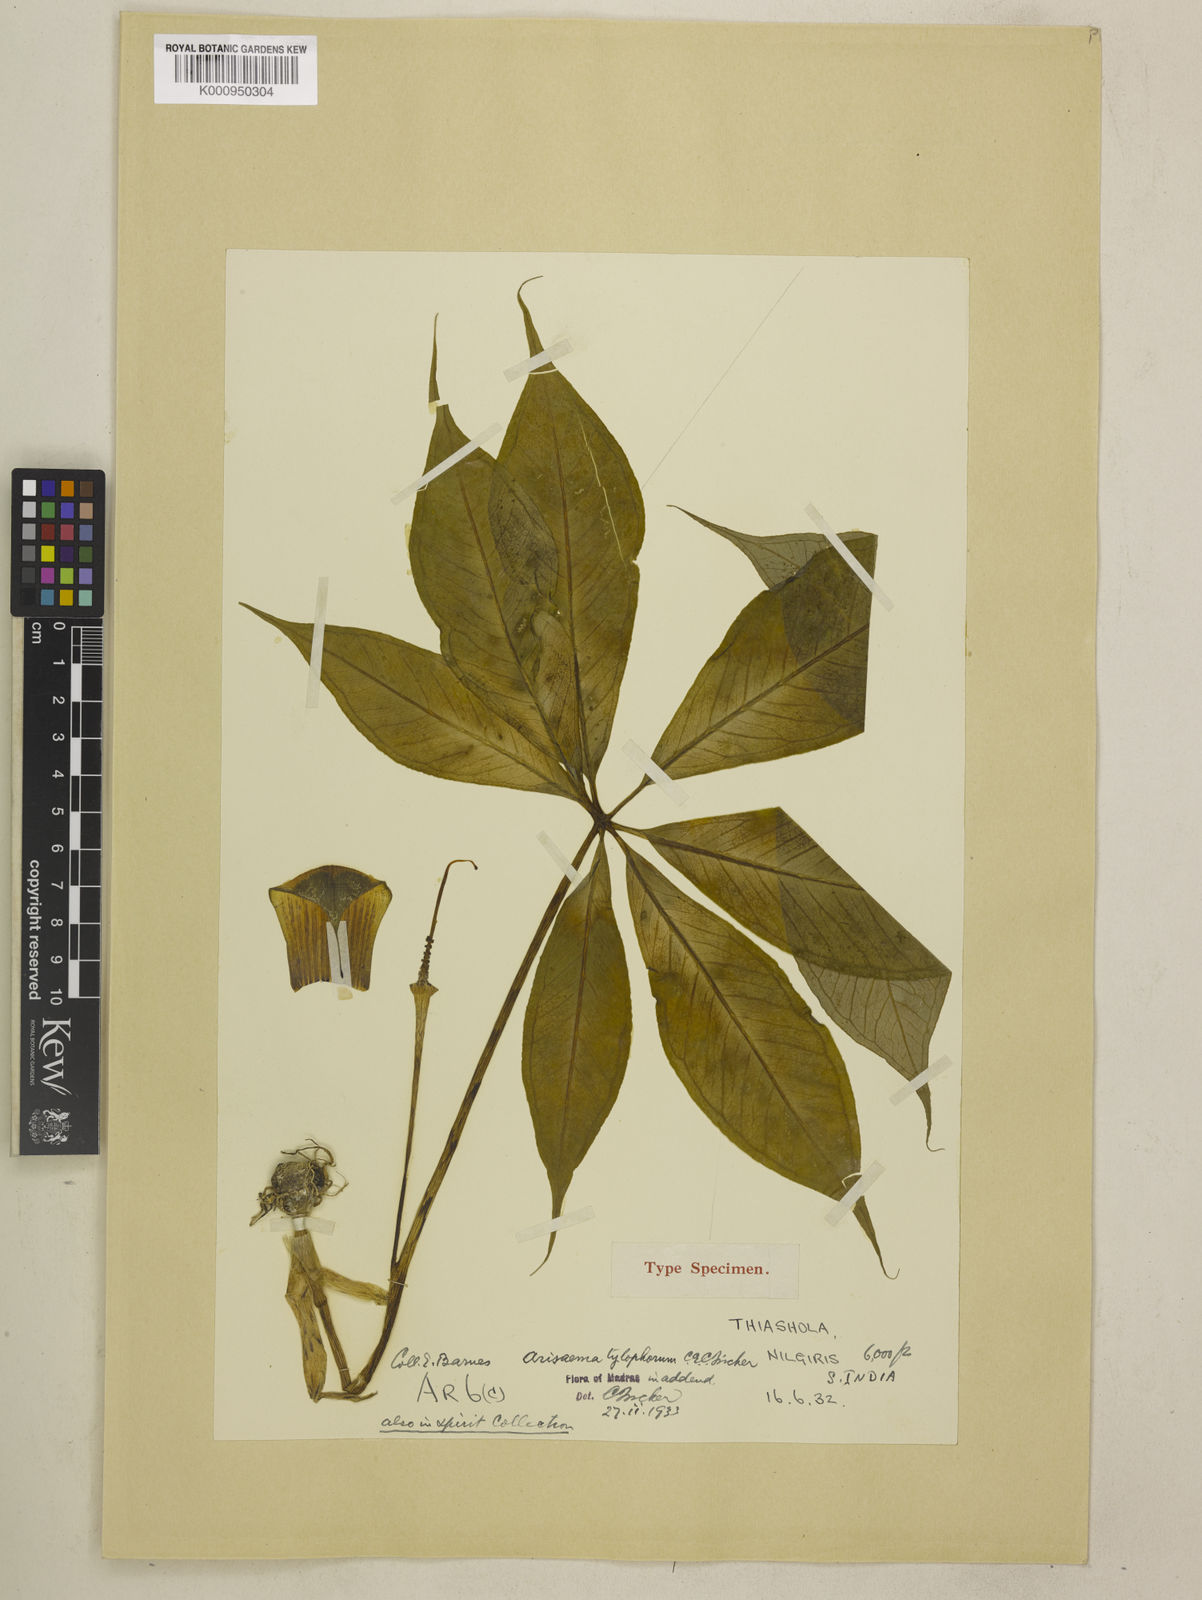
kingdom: Plantae
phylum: Tracheophyta
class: Liliopsida
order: Alismatales
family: Araceae
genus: Arisaema
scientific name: Arisaema barnesii
